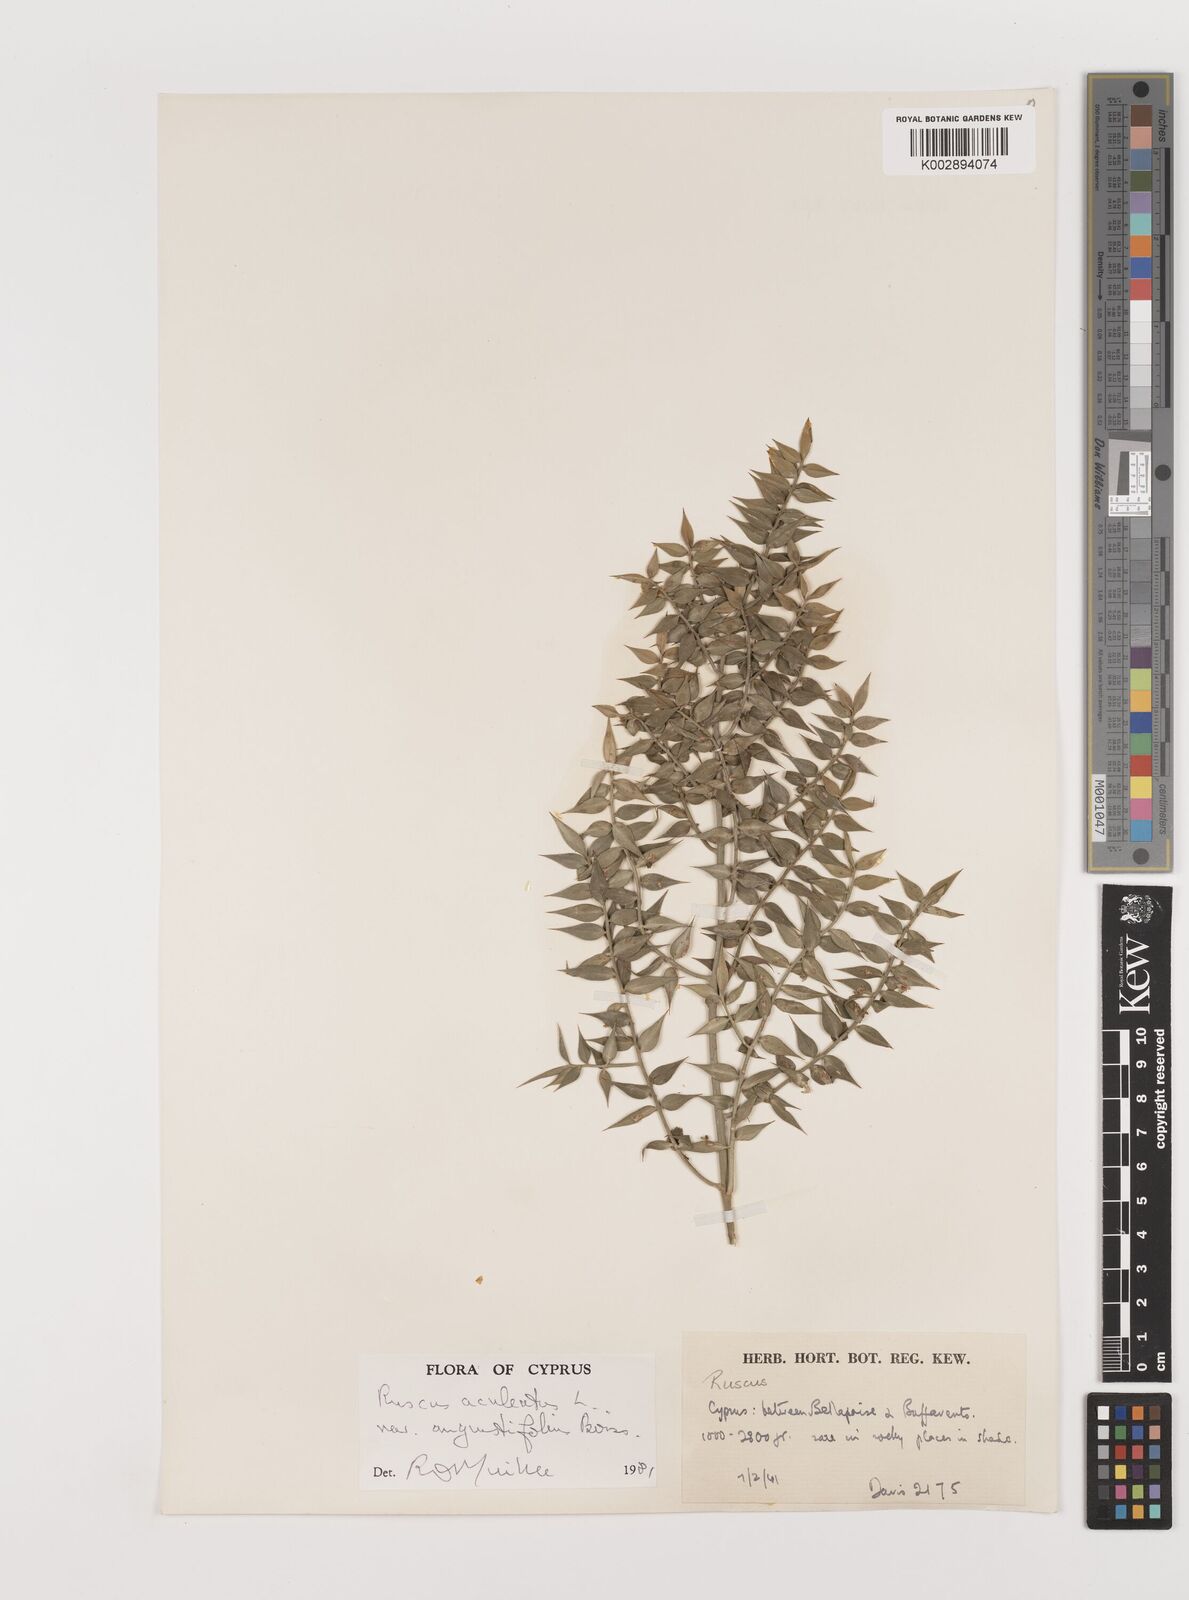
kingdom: Plantae
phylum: Tracheophyta
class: Liliopsida
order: Asparagales
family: Asparagaceae
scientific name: Asparagaceae
